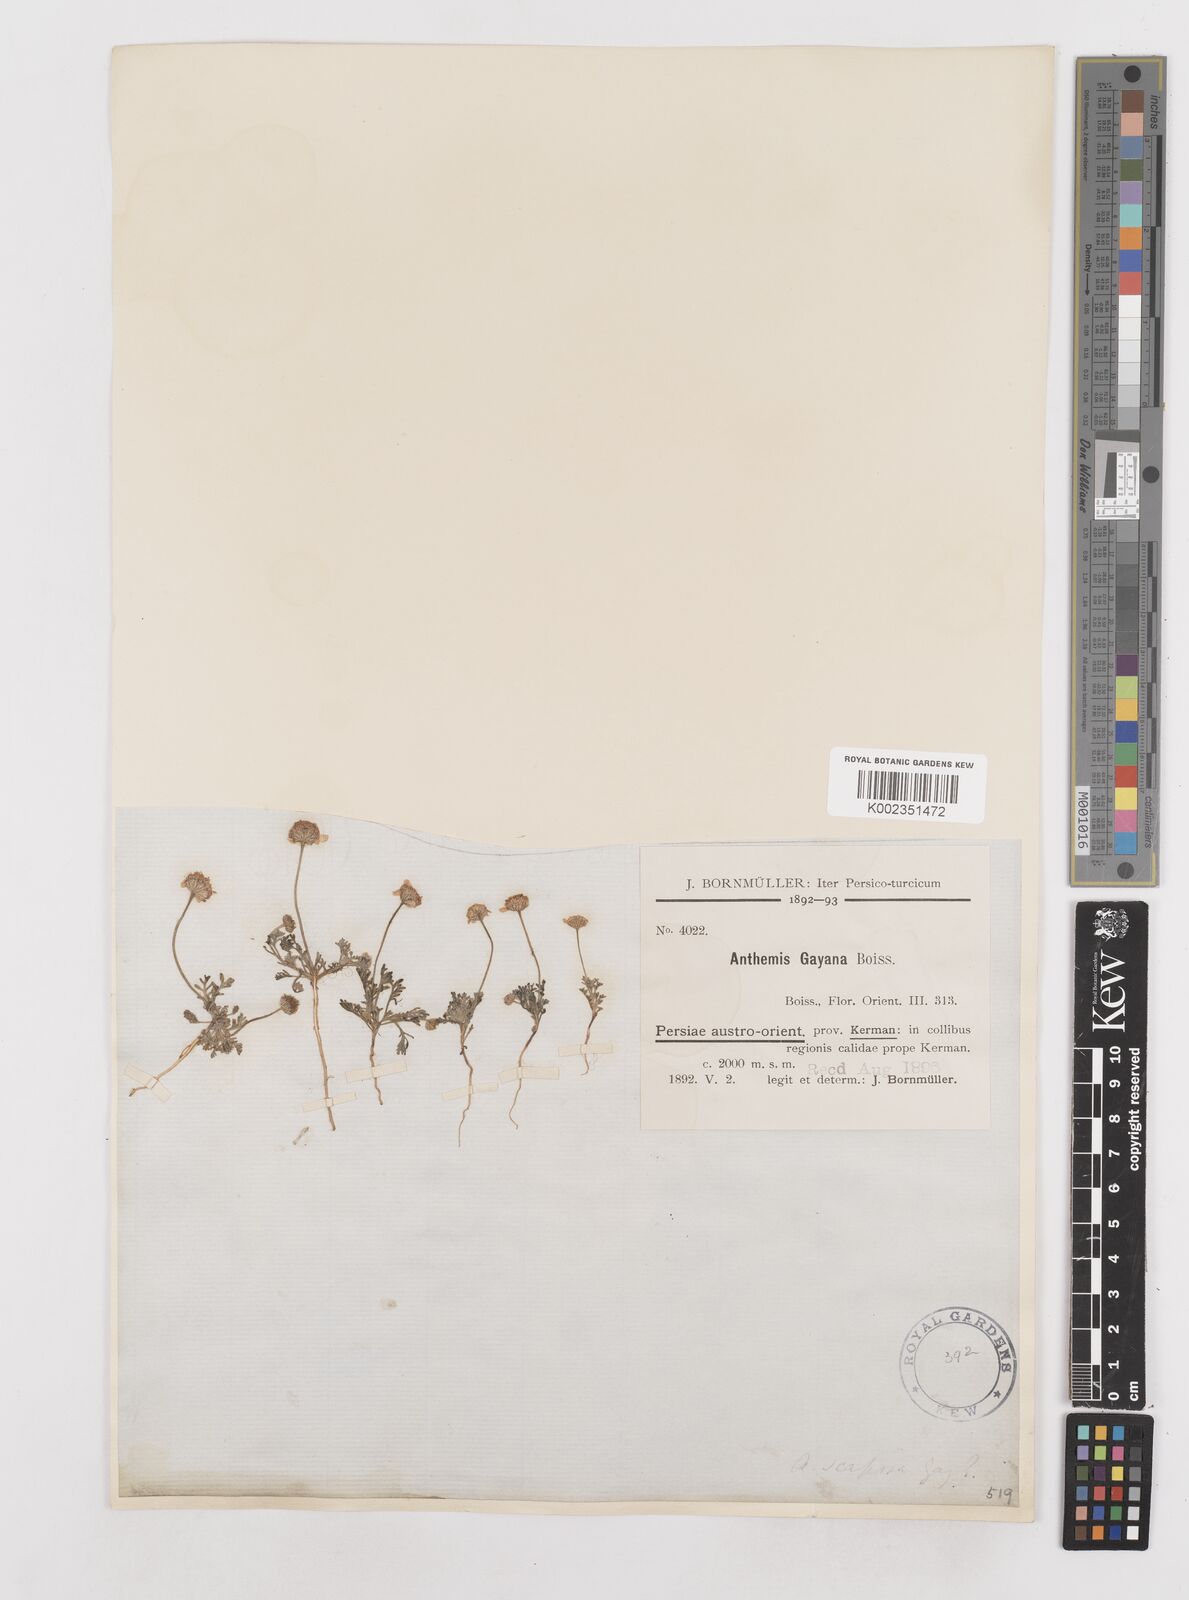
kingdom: Plantae
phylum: Tracheophyta
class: Magnoliopsida
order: Asterales
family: Asteraceae
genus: Anthemis
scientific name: Anthemis gayana
